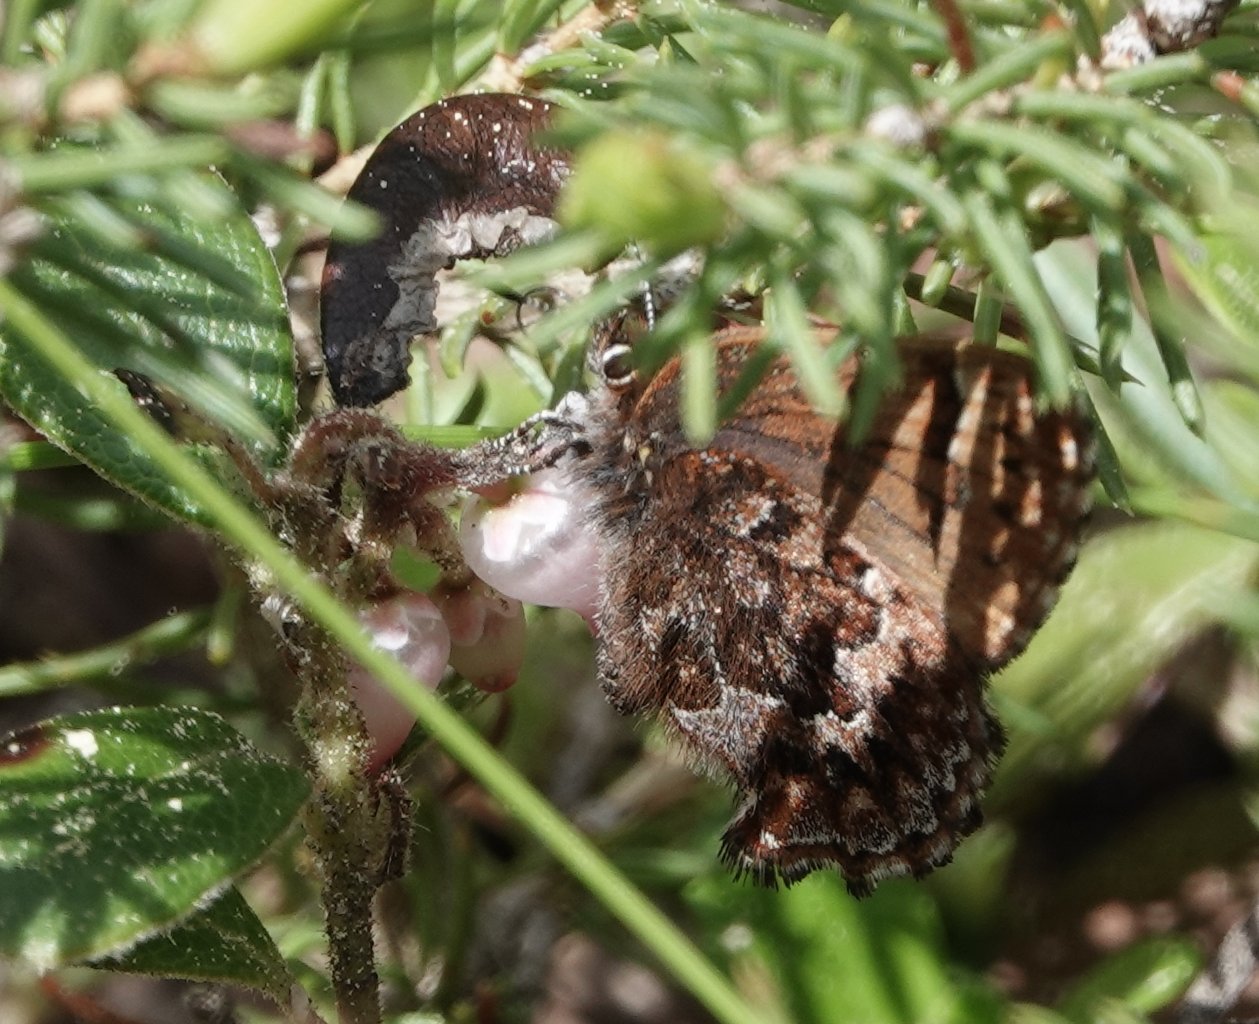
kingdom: Animalia
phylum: Arthropoda
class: Insecta
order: Lepidoptera
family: Lycaenidae
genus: Incisalia
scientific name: Incisalia eryphon
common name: Western Pine Elfin
